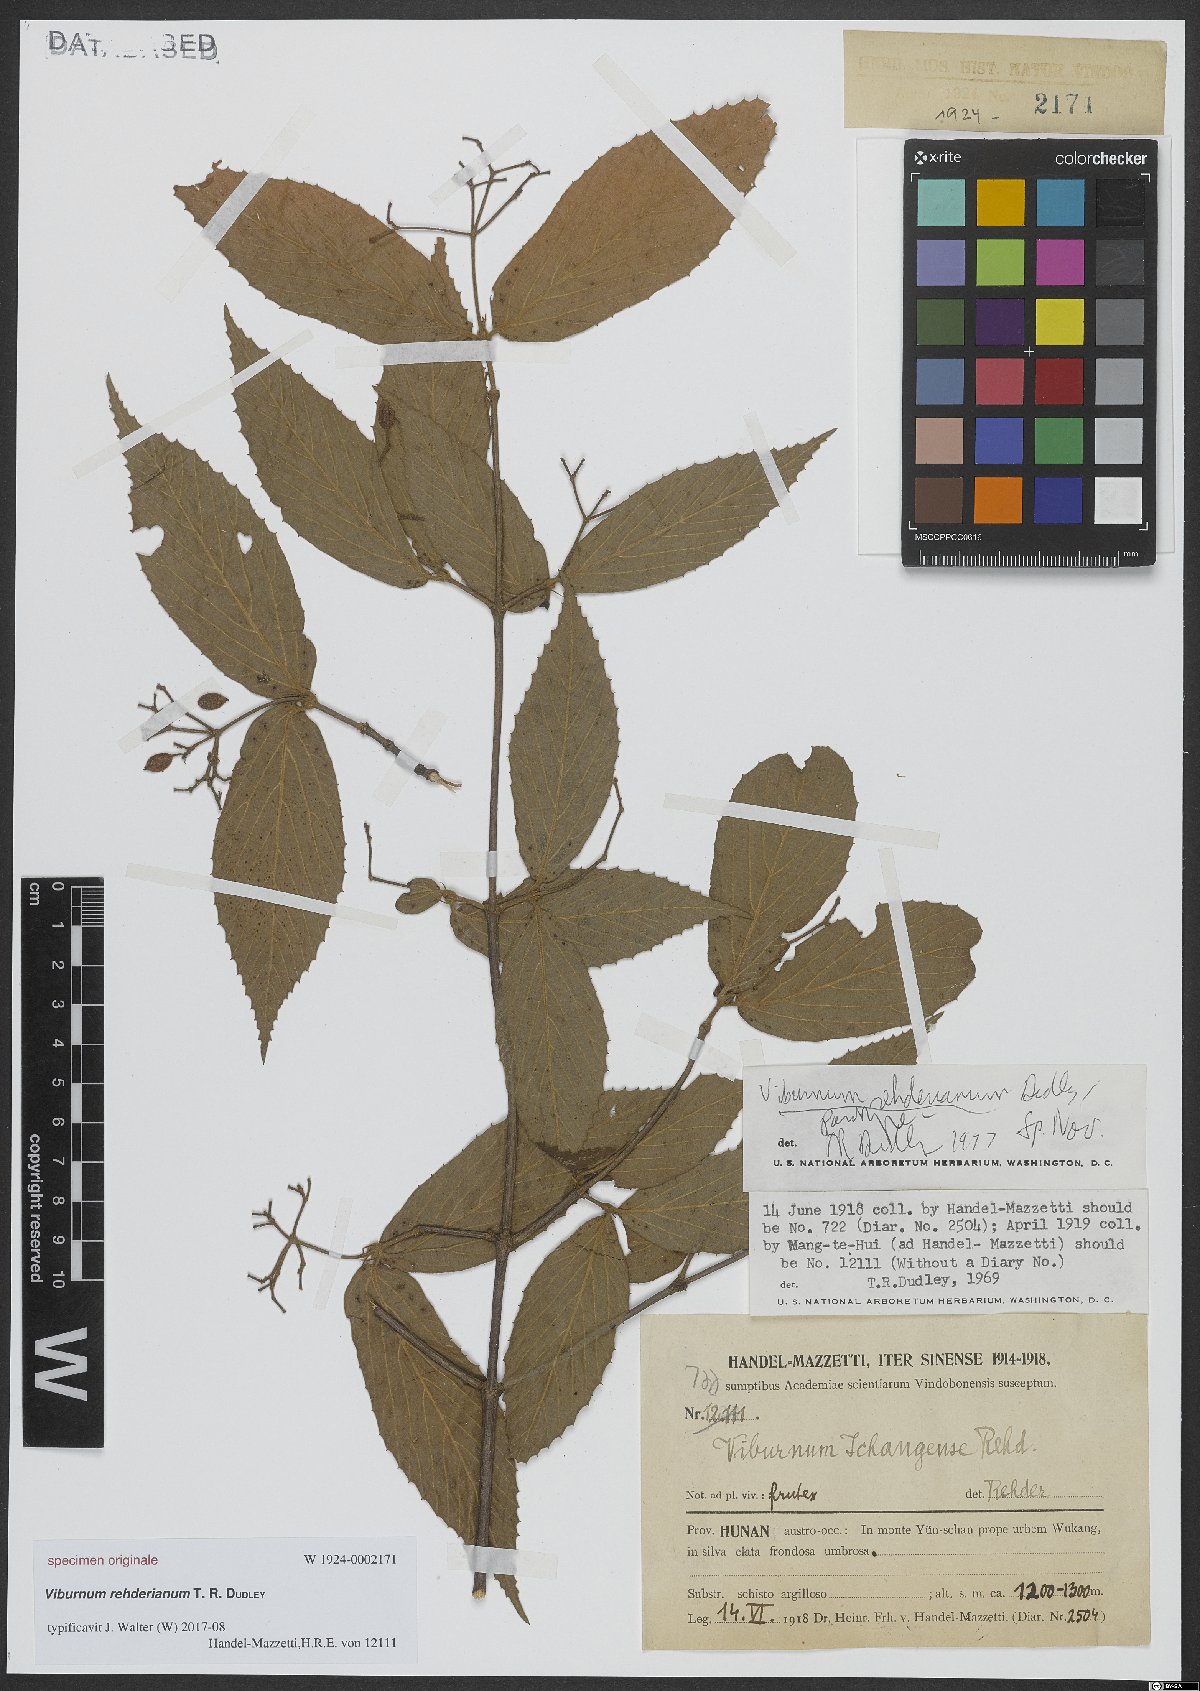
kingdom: Plantae
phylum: Tracheophyta
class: Magnoliopsida
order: Dipsacales
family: Viburnaceae
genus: Viburnum
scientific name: Viburnum erosum
